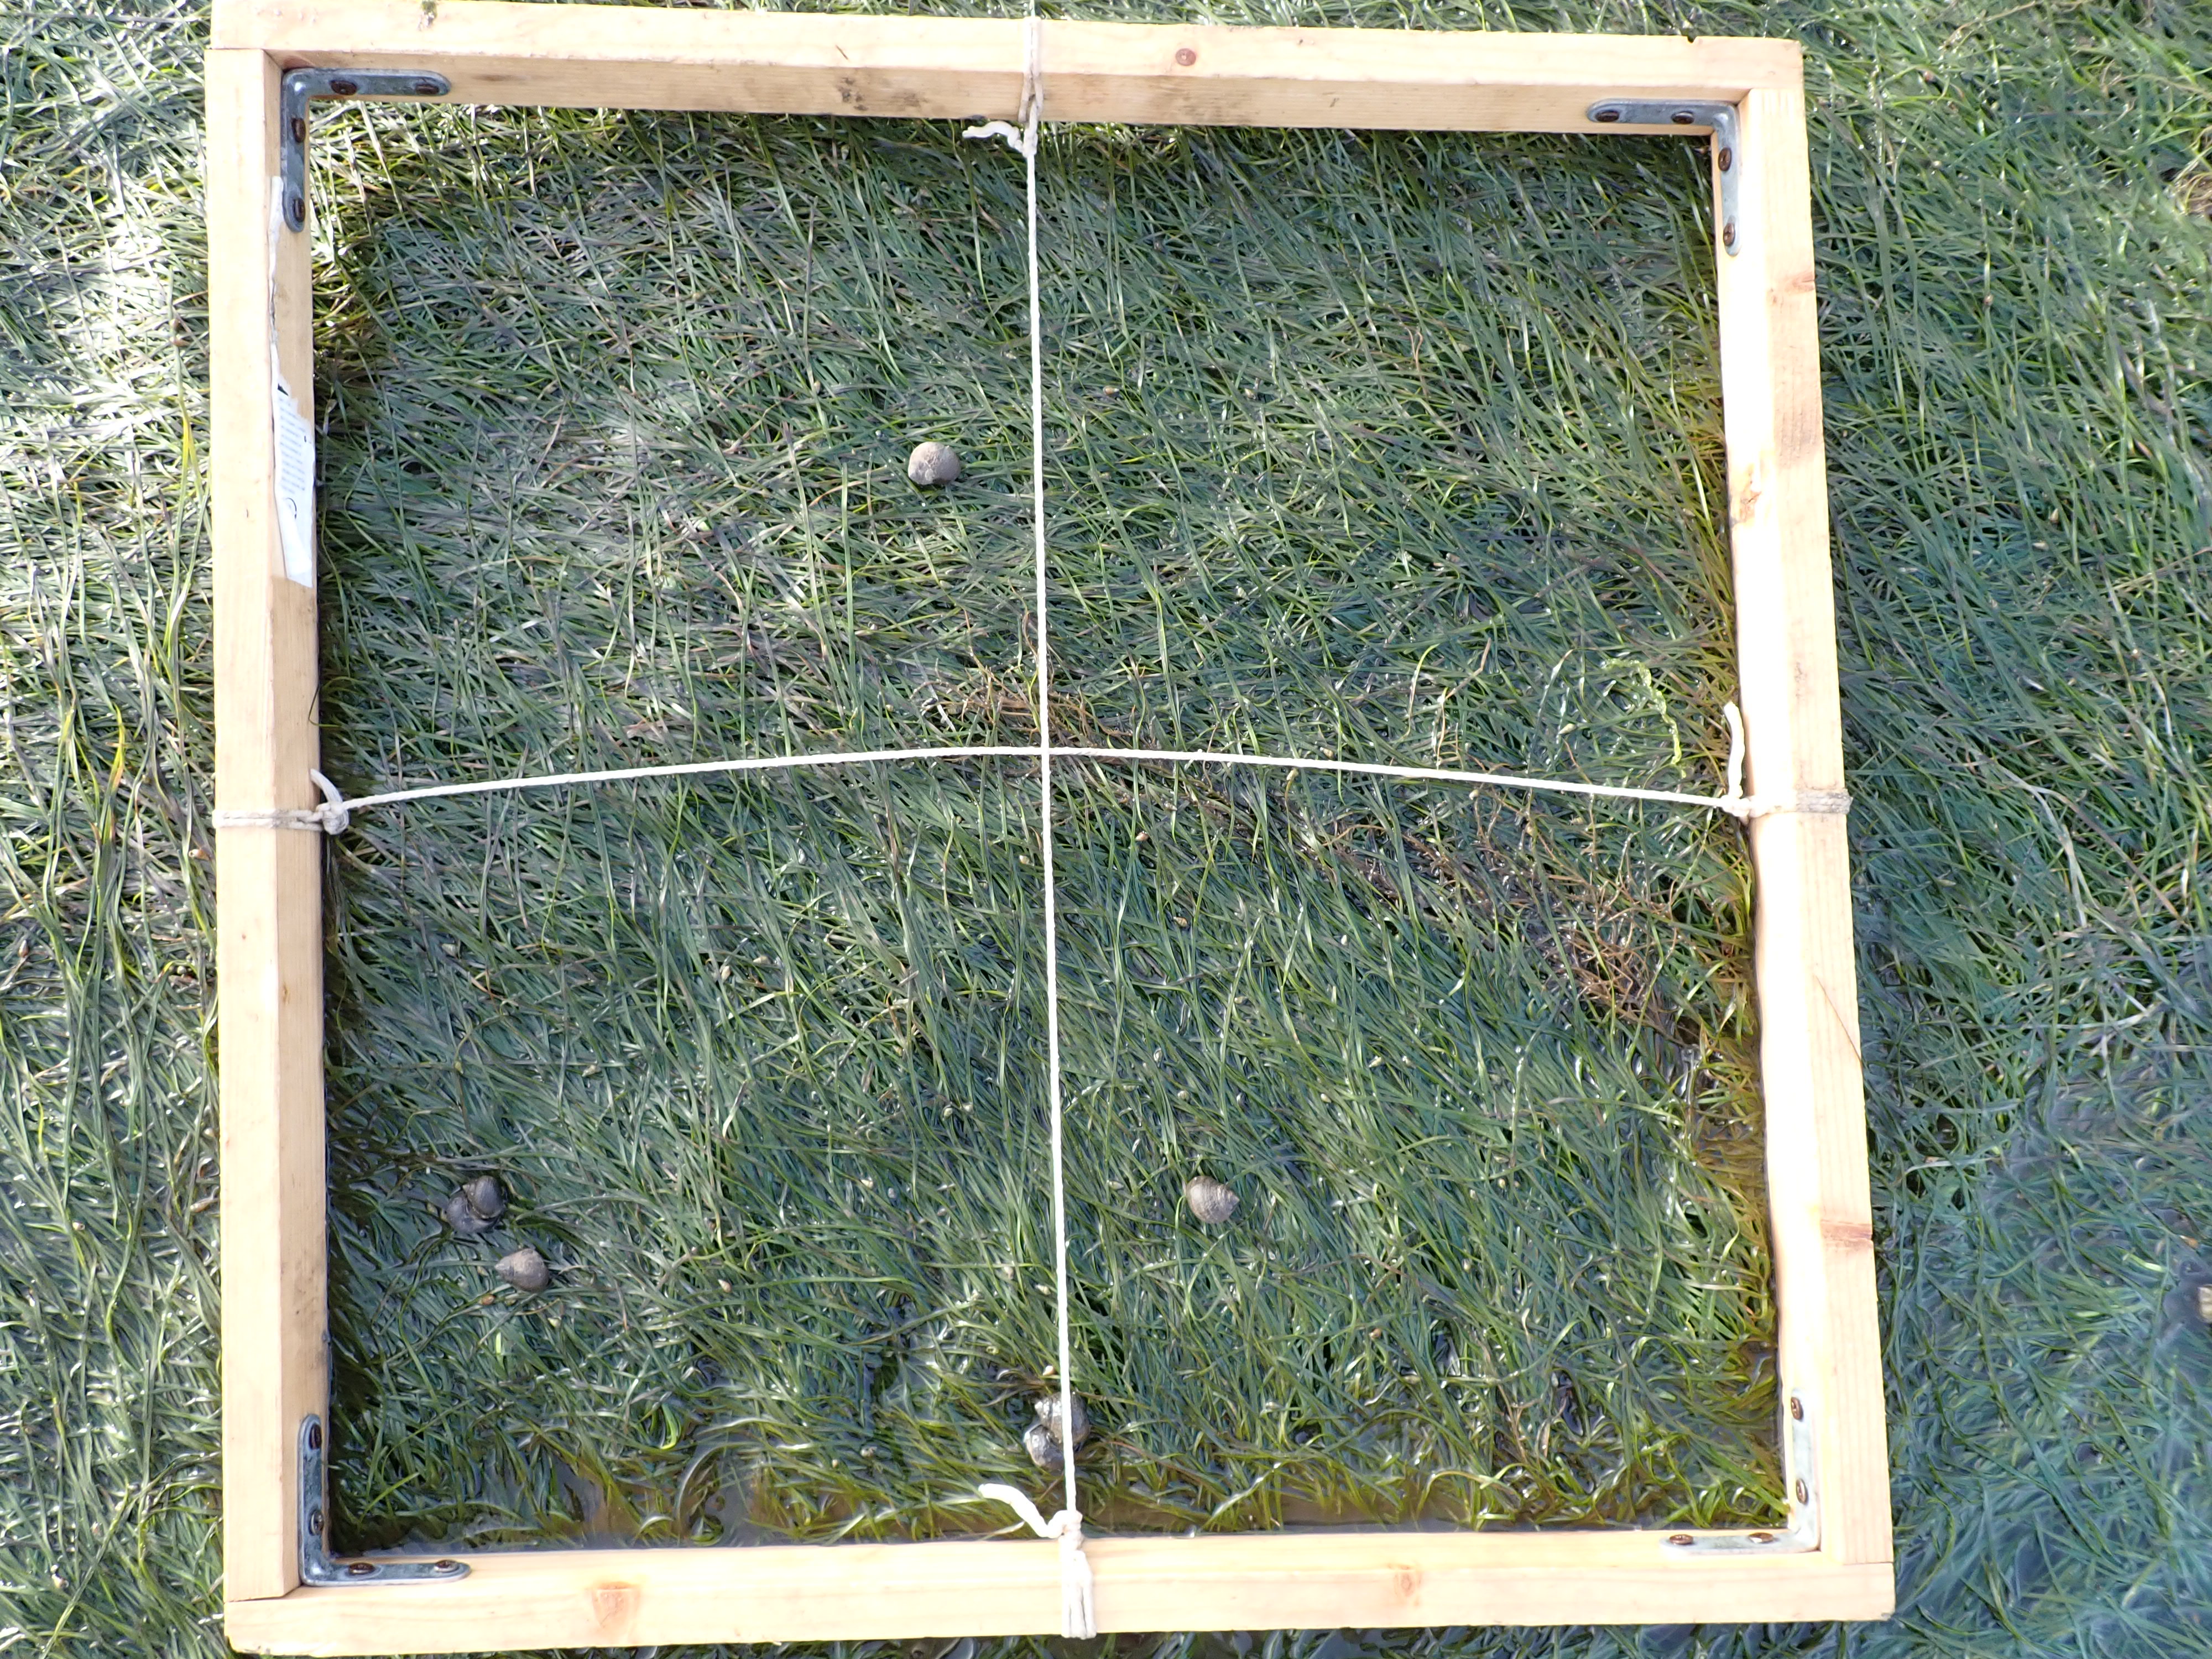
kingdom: Plantae
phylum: Tracheophyta
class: Liliopsida
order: Alismatales
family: Zosteraceae
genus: Zostera
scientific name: Zostera noltii
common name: Dwarf eelgrass
